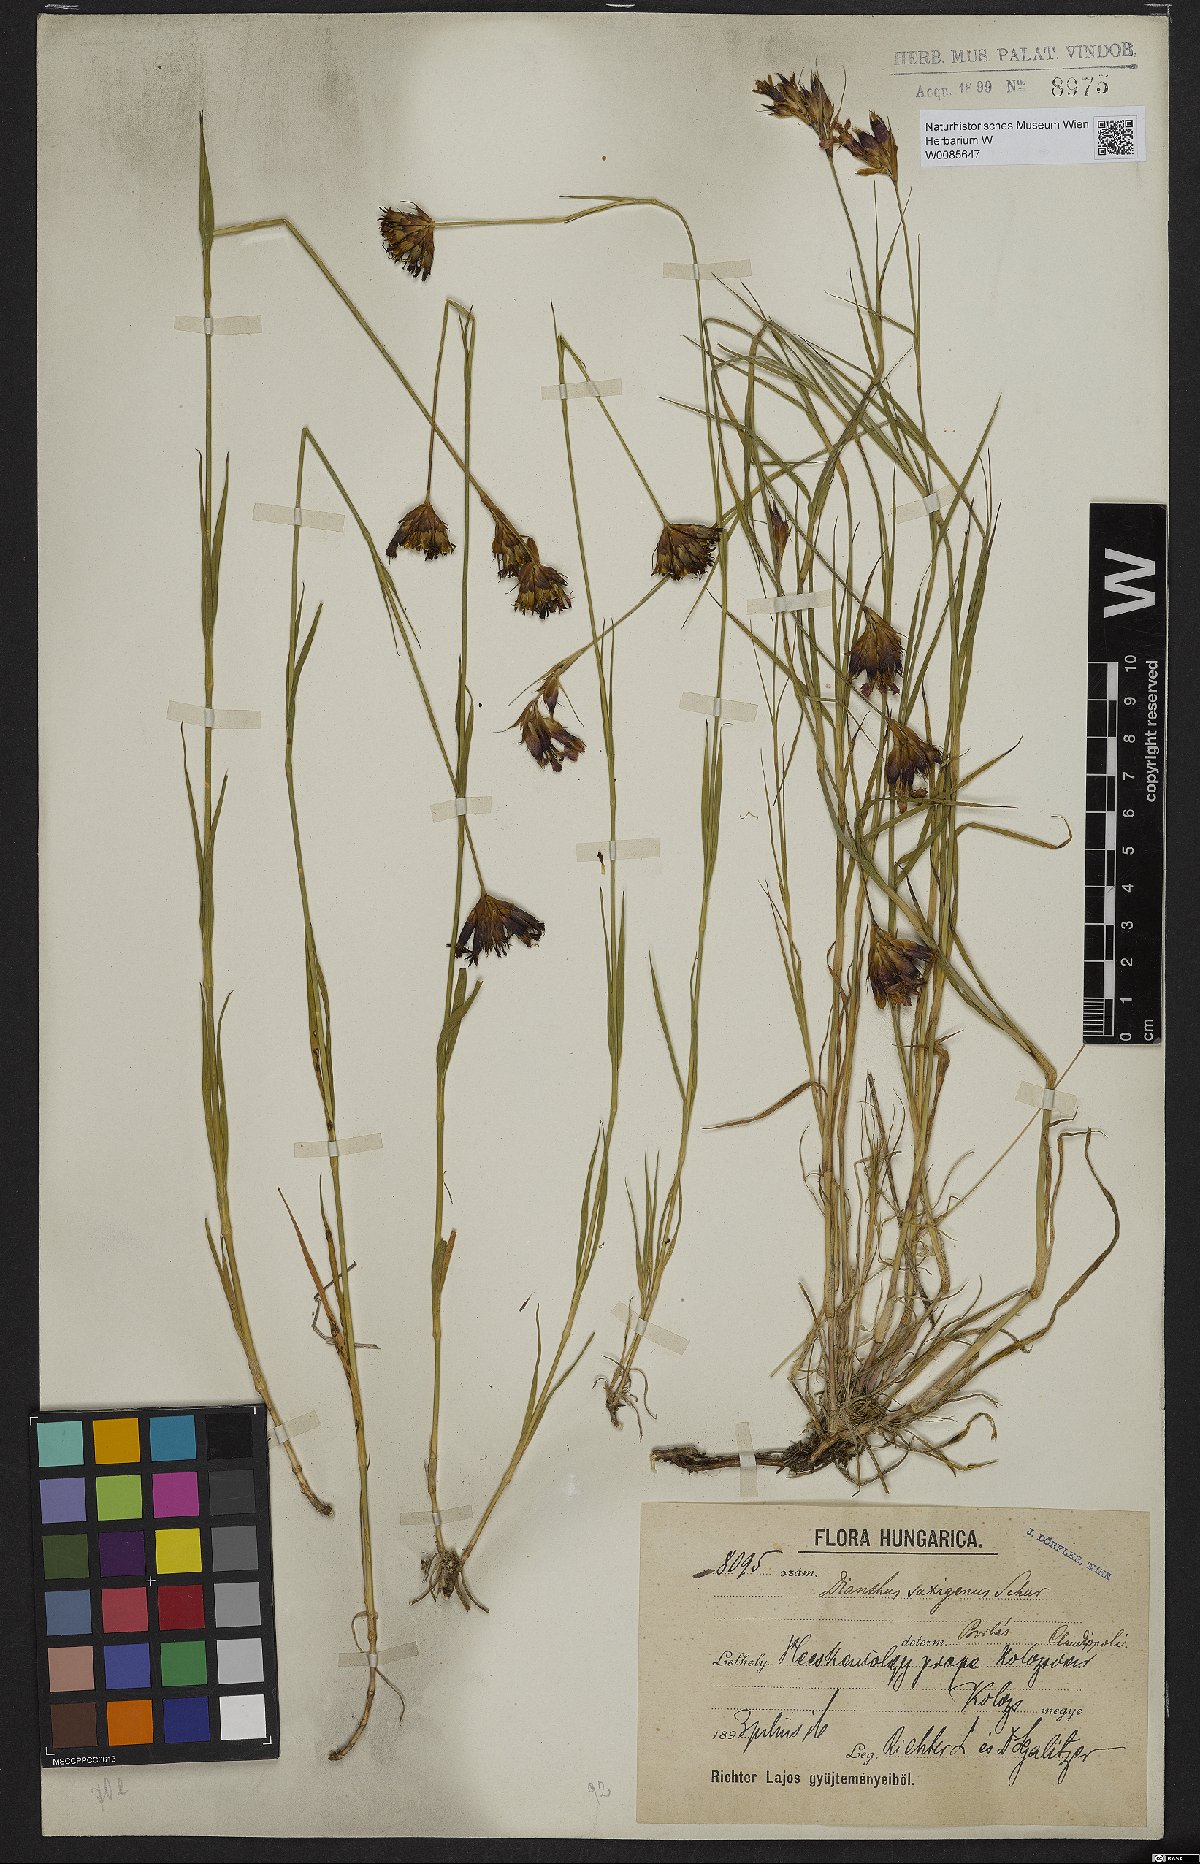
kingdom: Plantae
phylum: Tracheophyta
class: Magnoliopsida
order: Caryophyllales
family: Caryophyllaceae
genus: Dianthus
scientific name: Dianthus
